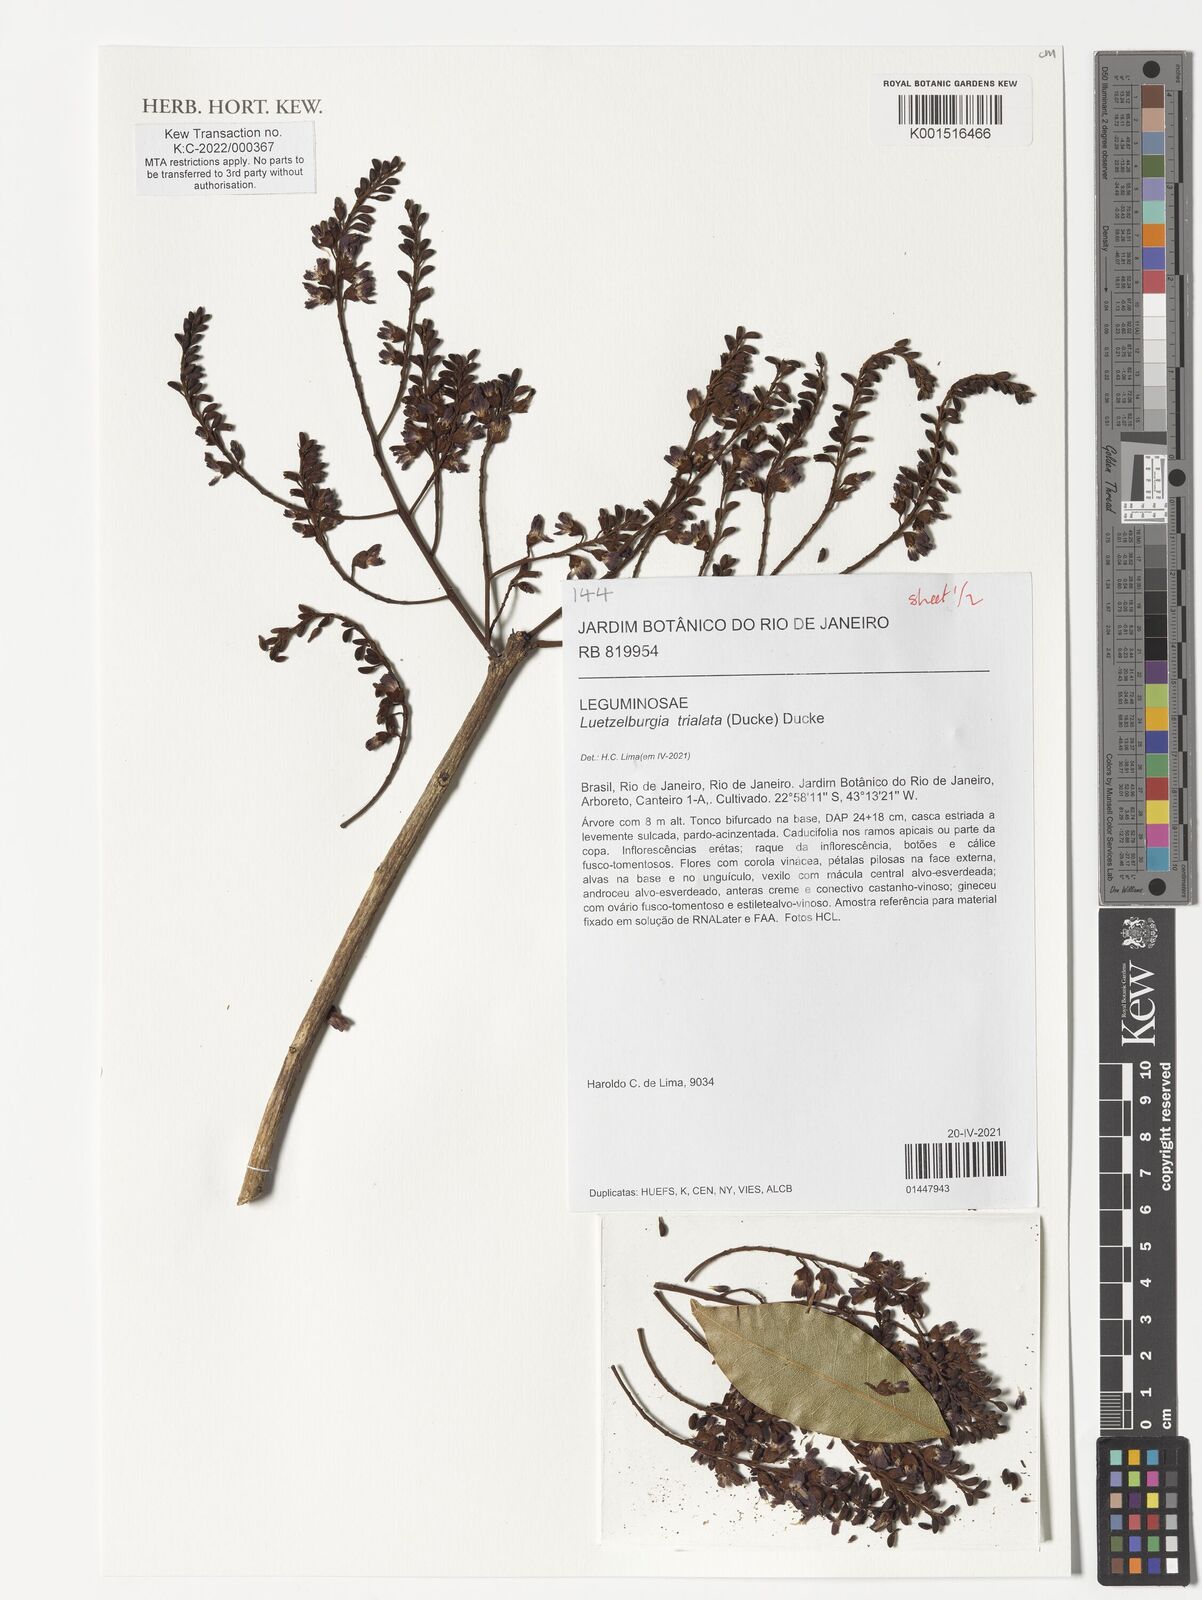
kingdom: Plantae
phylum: Tracheophyta
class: Magnoliopsida
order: Fabales
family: Fabaceae
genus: Luetzelburgia
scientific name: Luetzelburgia trialata
